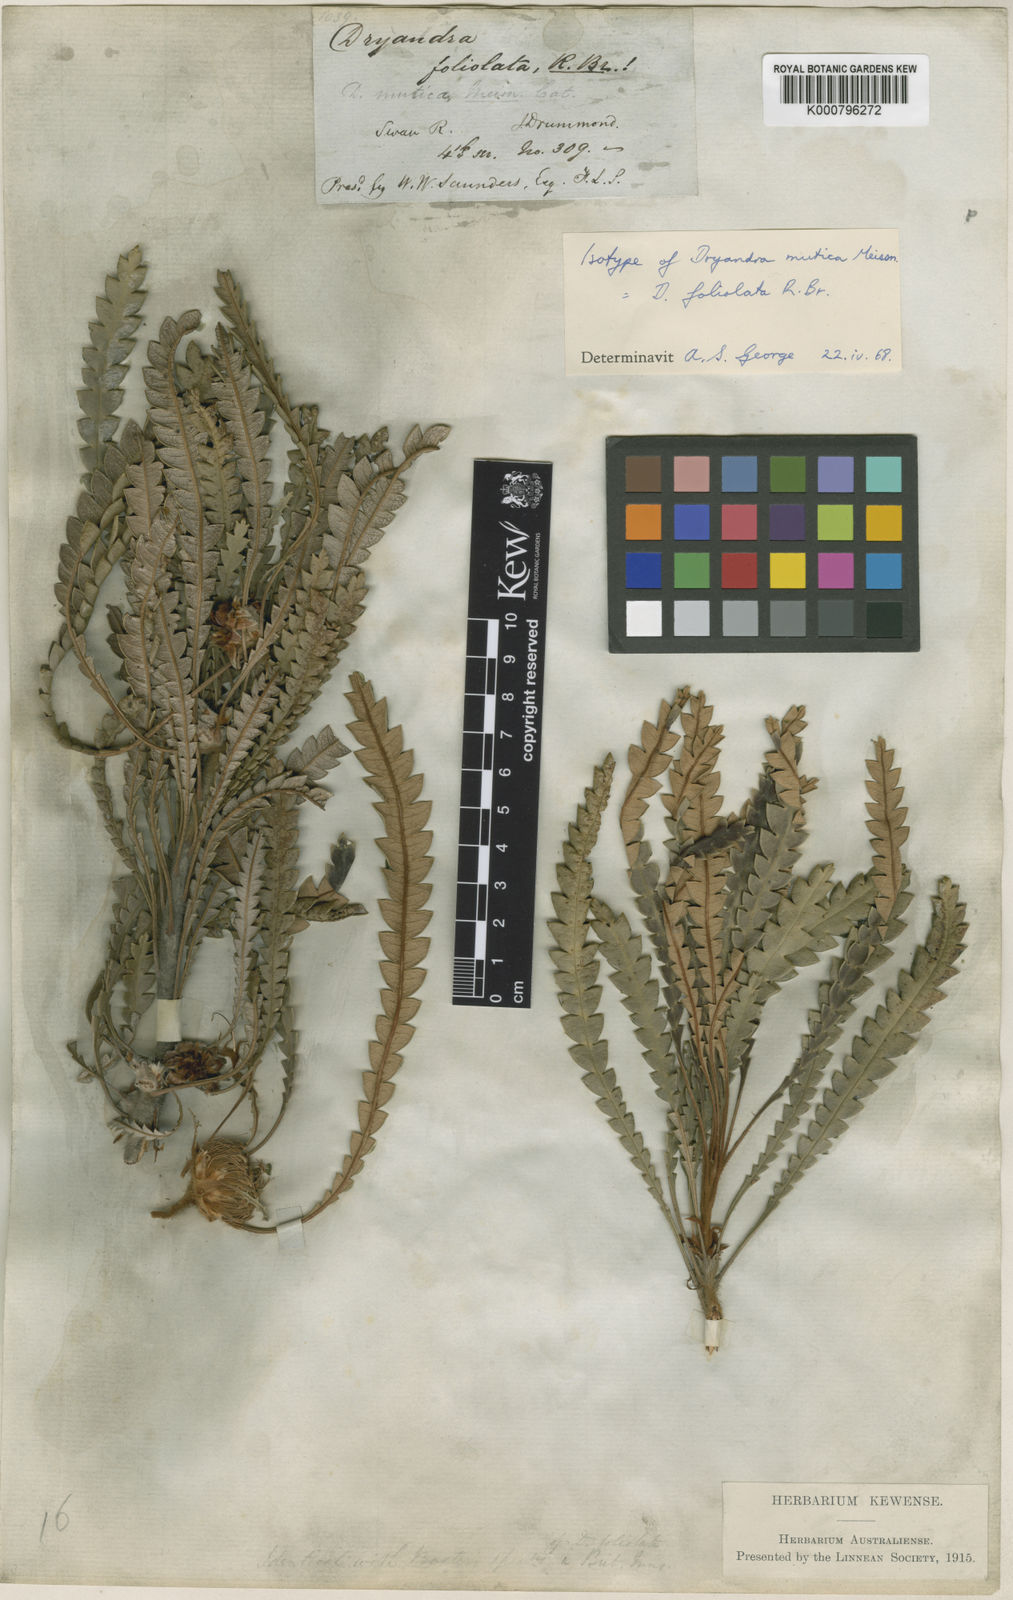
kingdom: Plantae
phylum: Tracheophyta
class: Magnoliopsida
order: Proteales
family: Proteaceae
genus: Banksia
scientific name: Banksia foliolata
